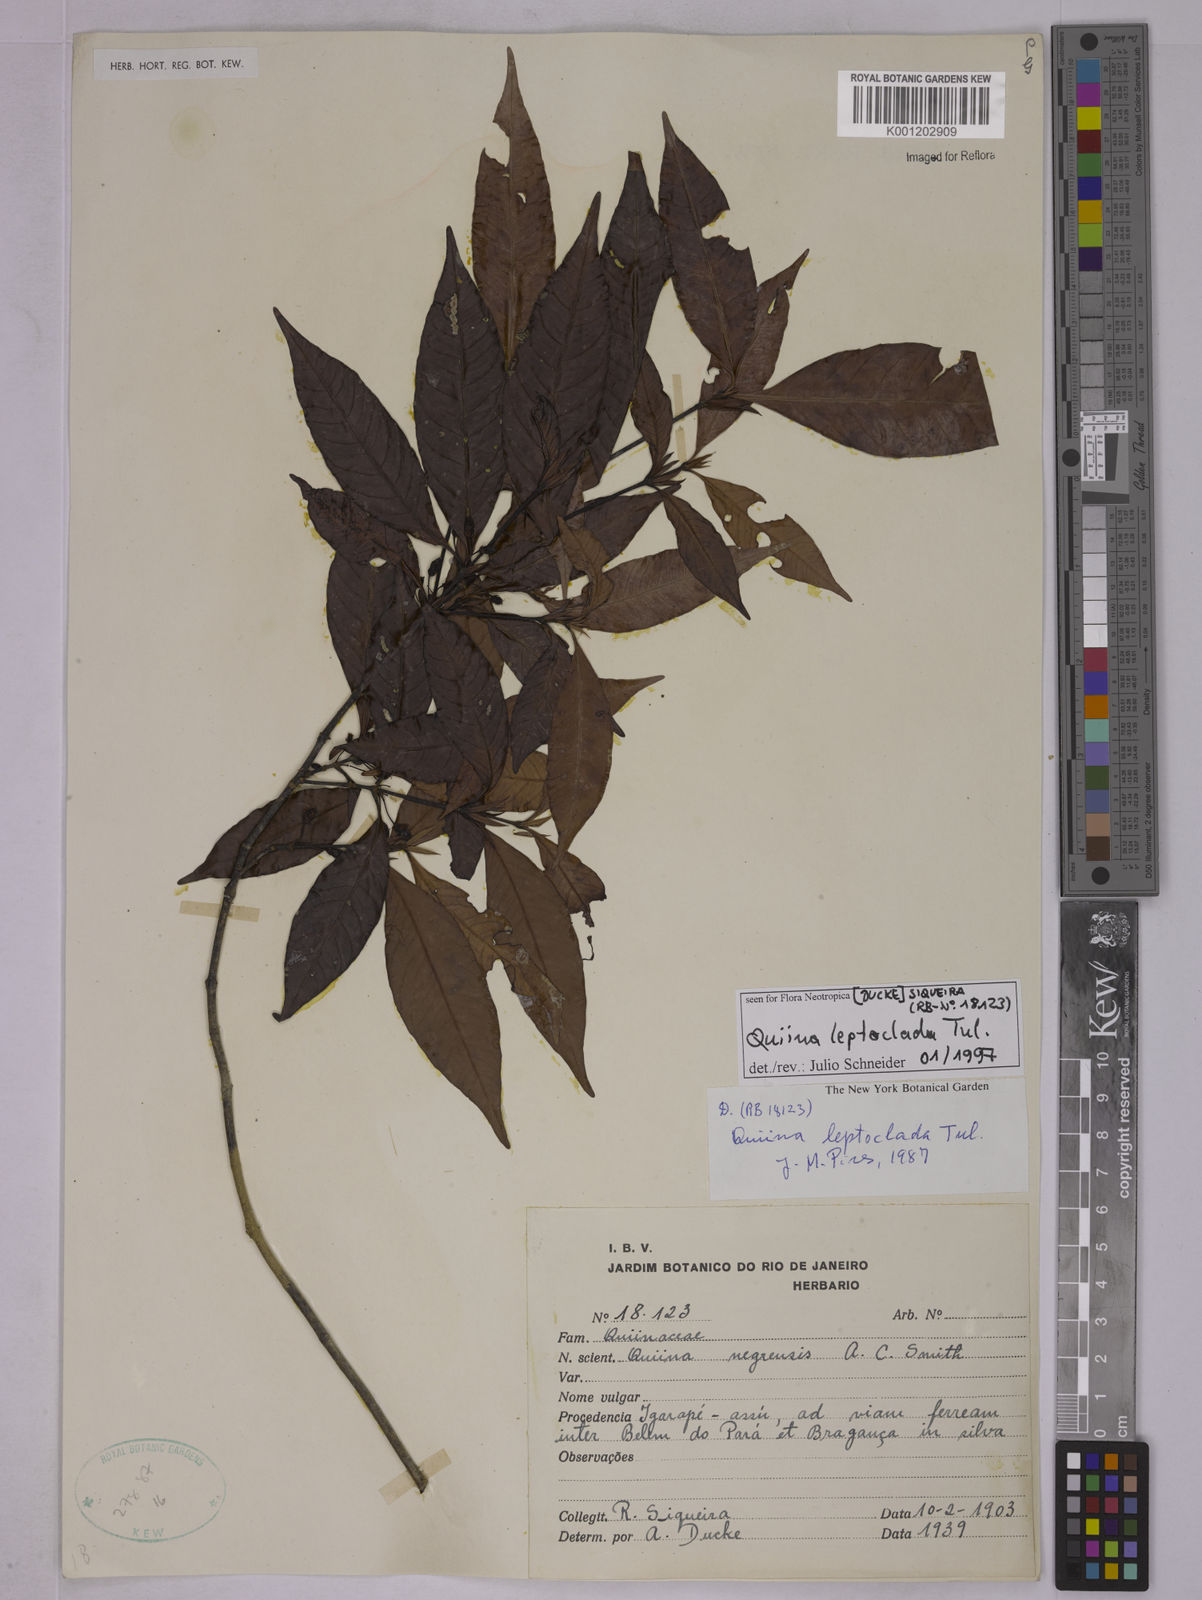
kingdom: Plantae
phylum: Tracheophyta
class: Magnoliopsida
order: Malpighiales
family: Quiinaceae
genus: Quiina
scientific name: Quiina leptoclada
